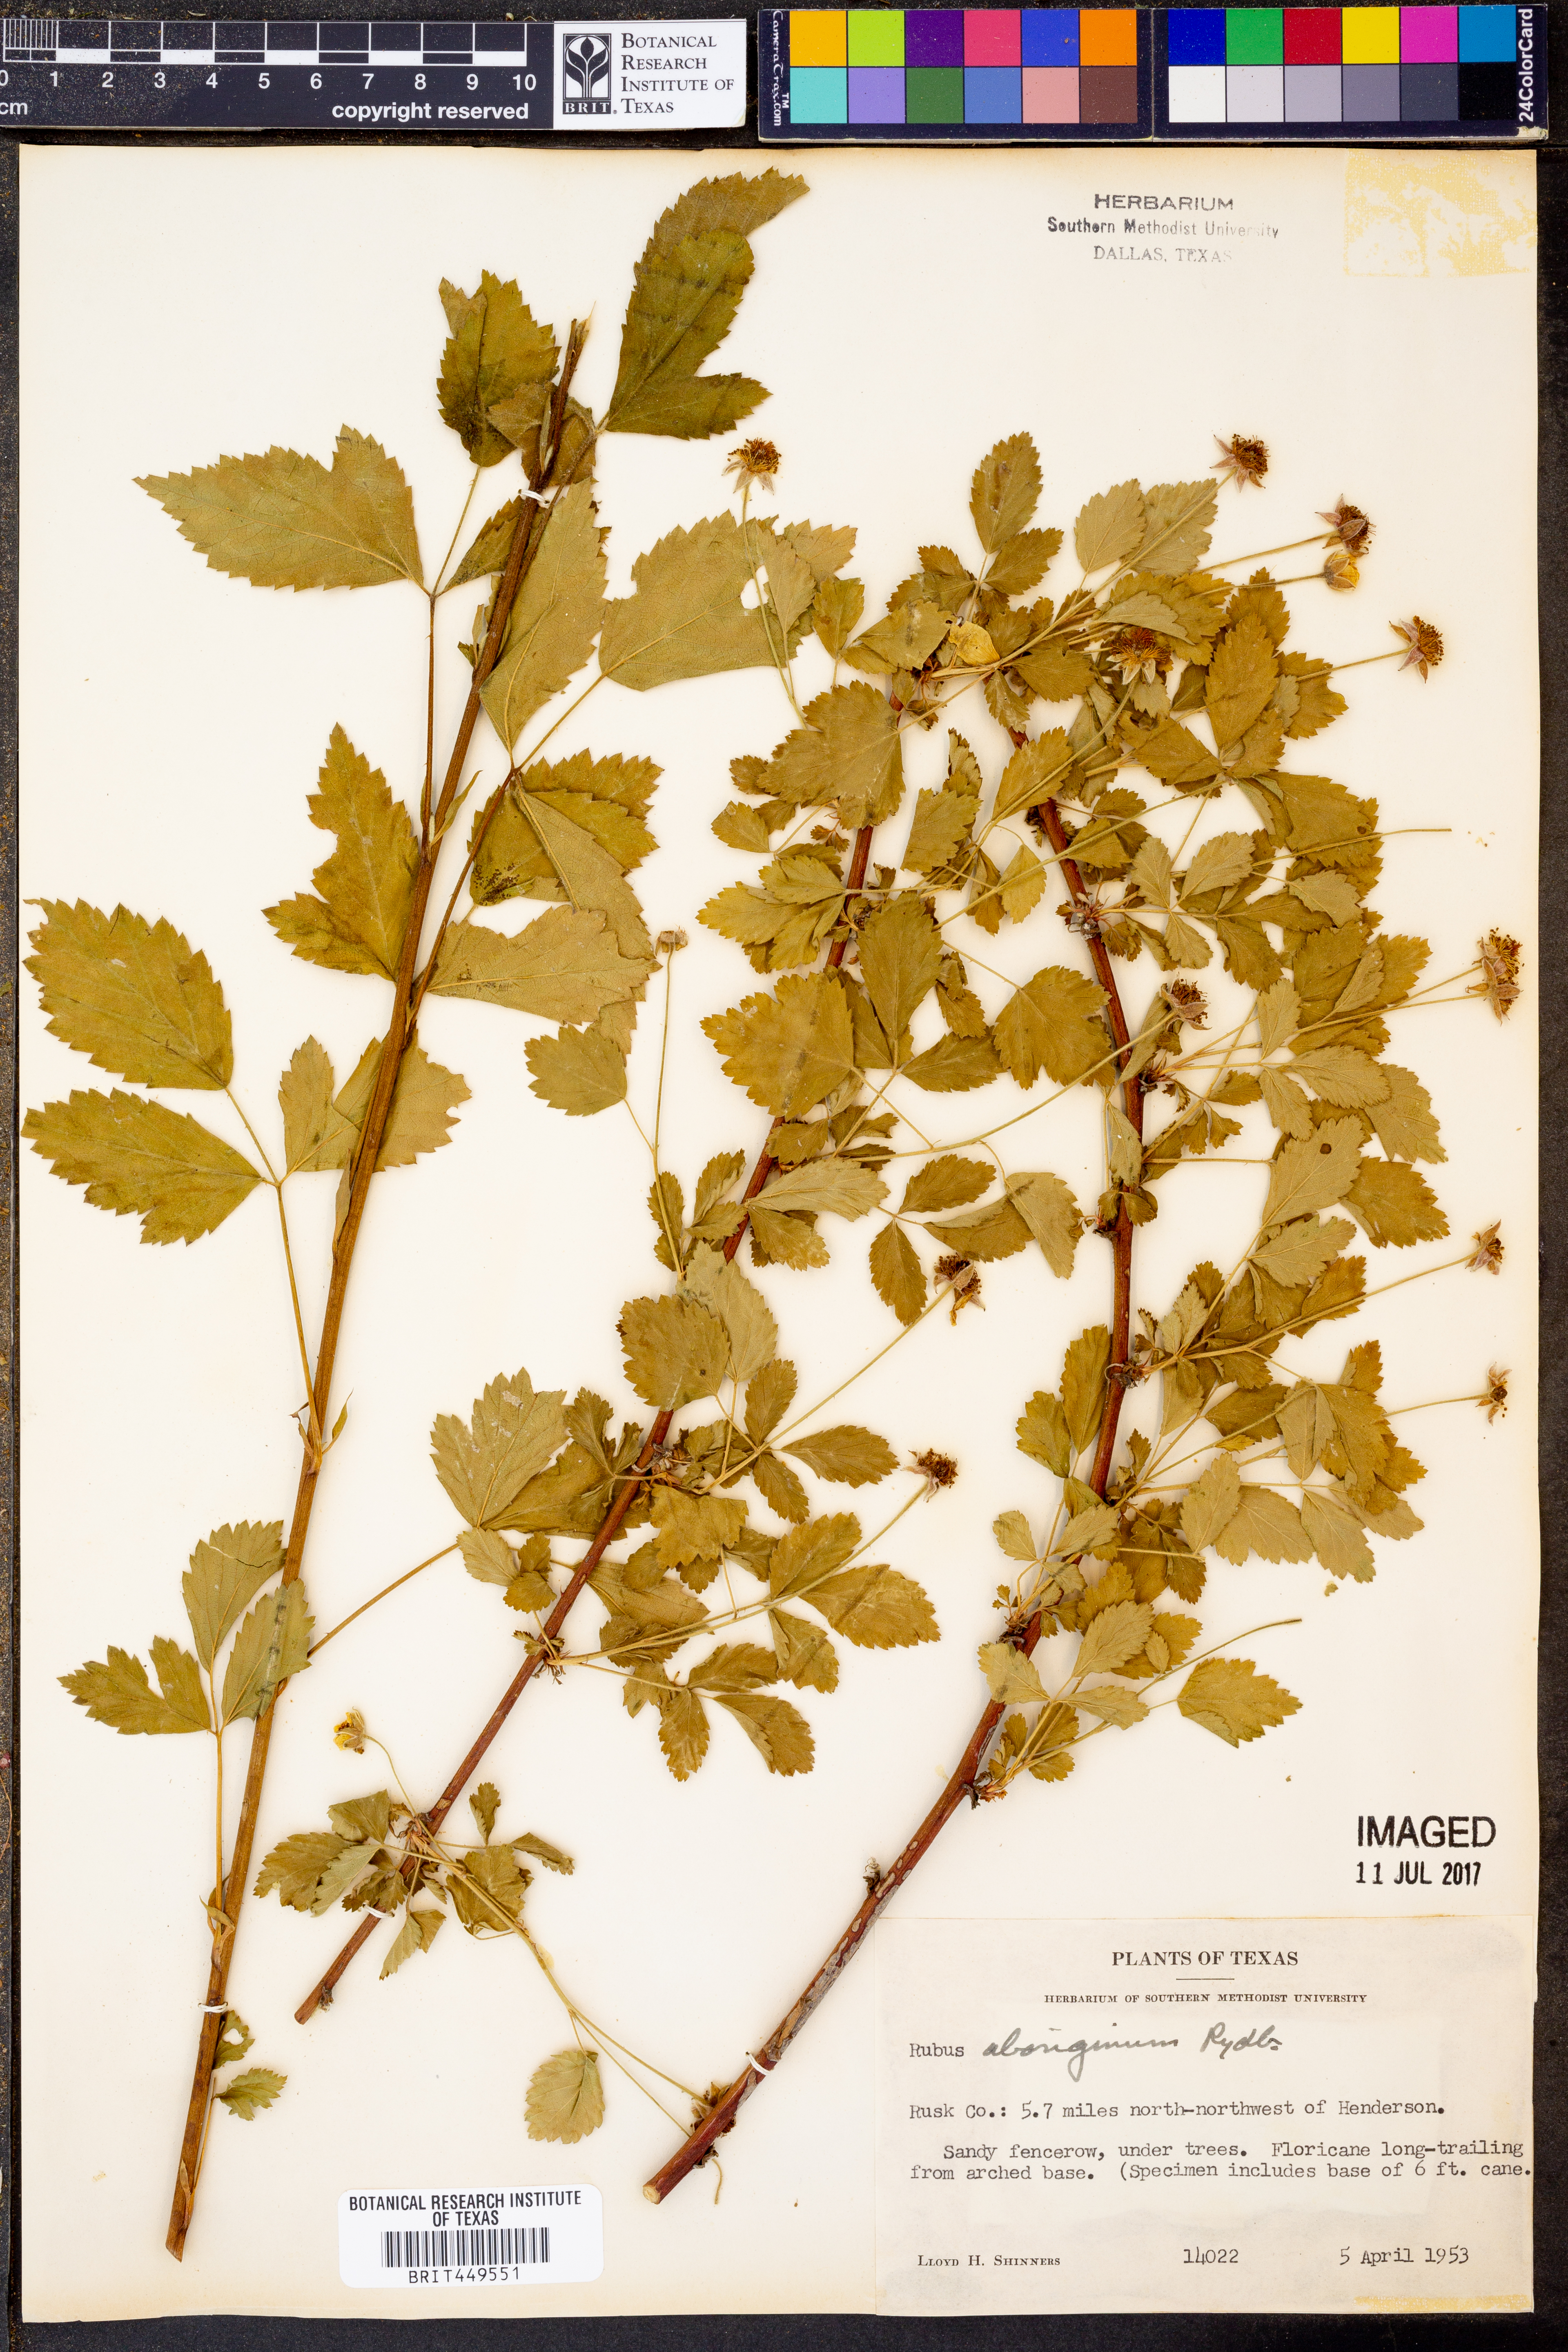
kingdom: Plantae
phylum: Tracheophyta
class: Magnoliopsida
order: Rosales
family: Rosaceae
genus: Rubus
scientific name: Rubus aboriginum
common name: Mayes dewberry
